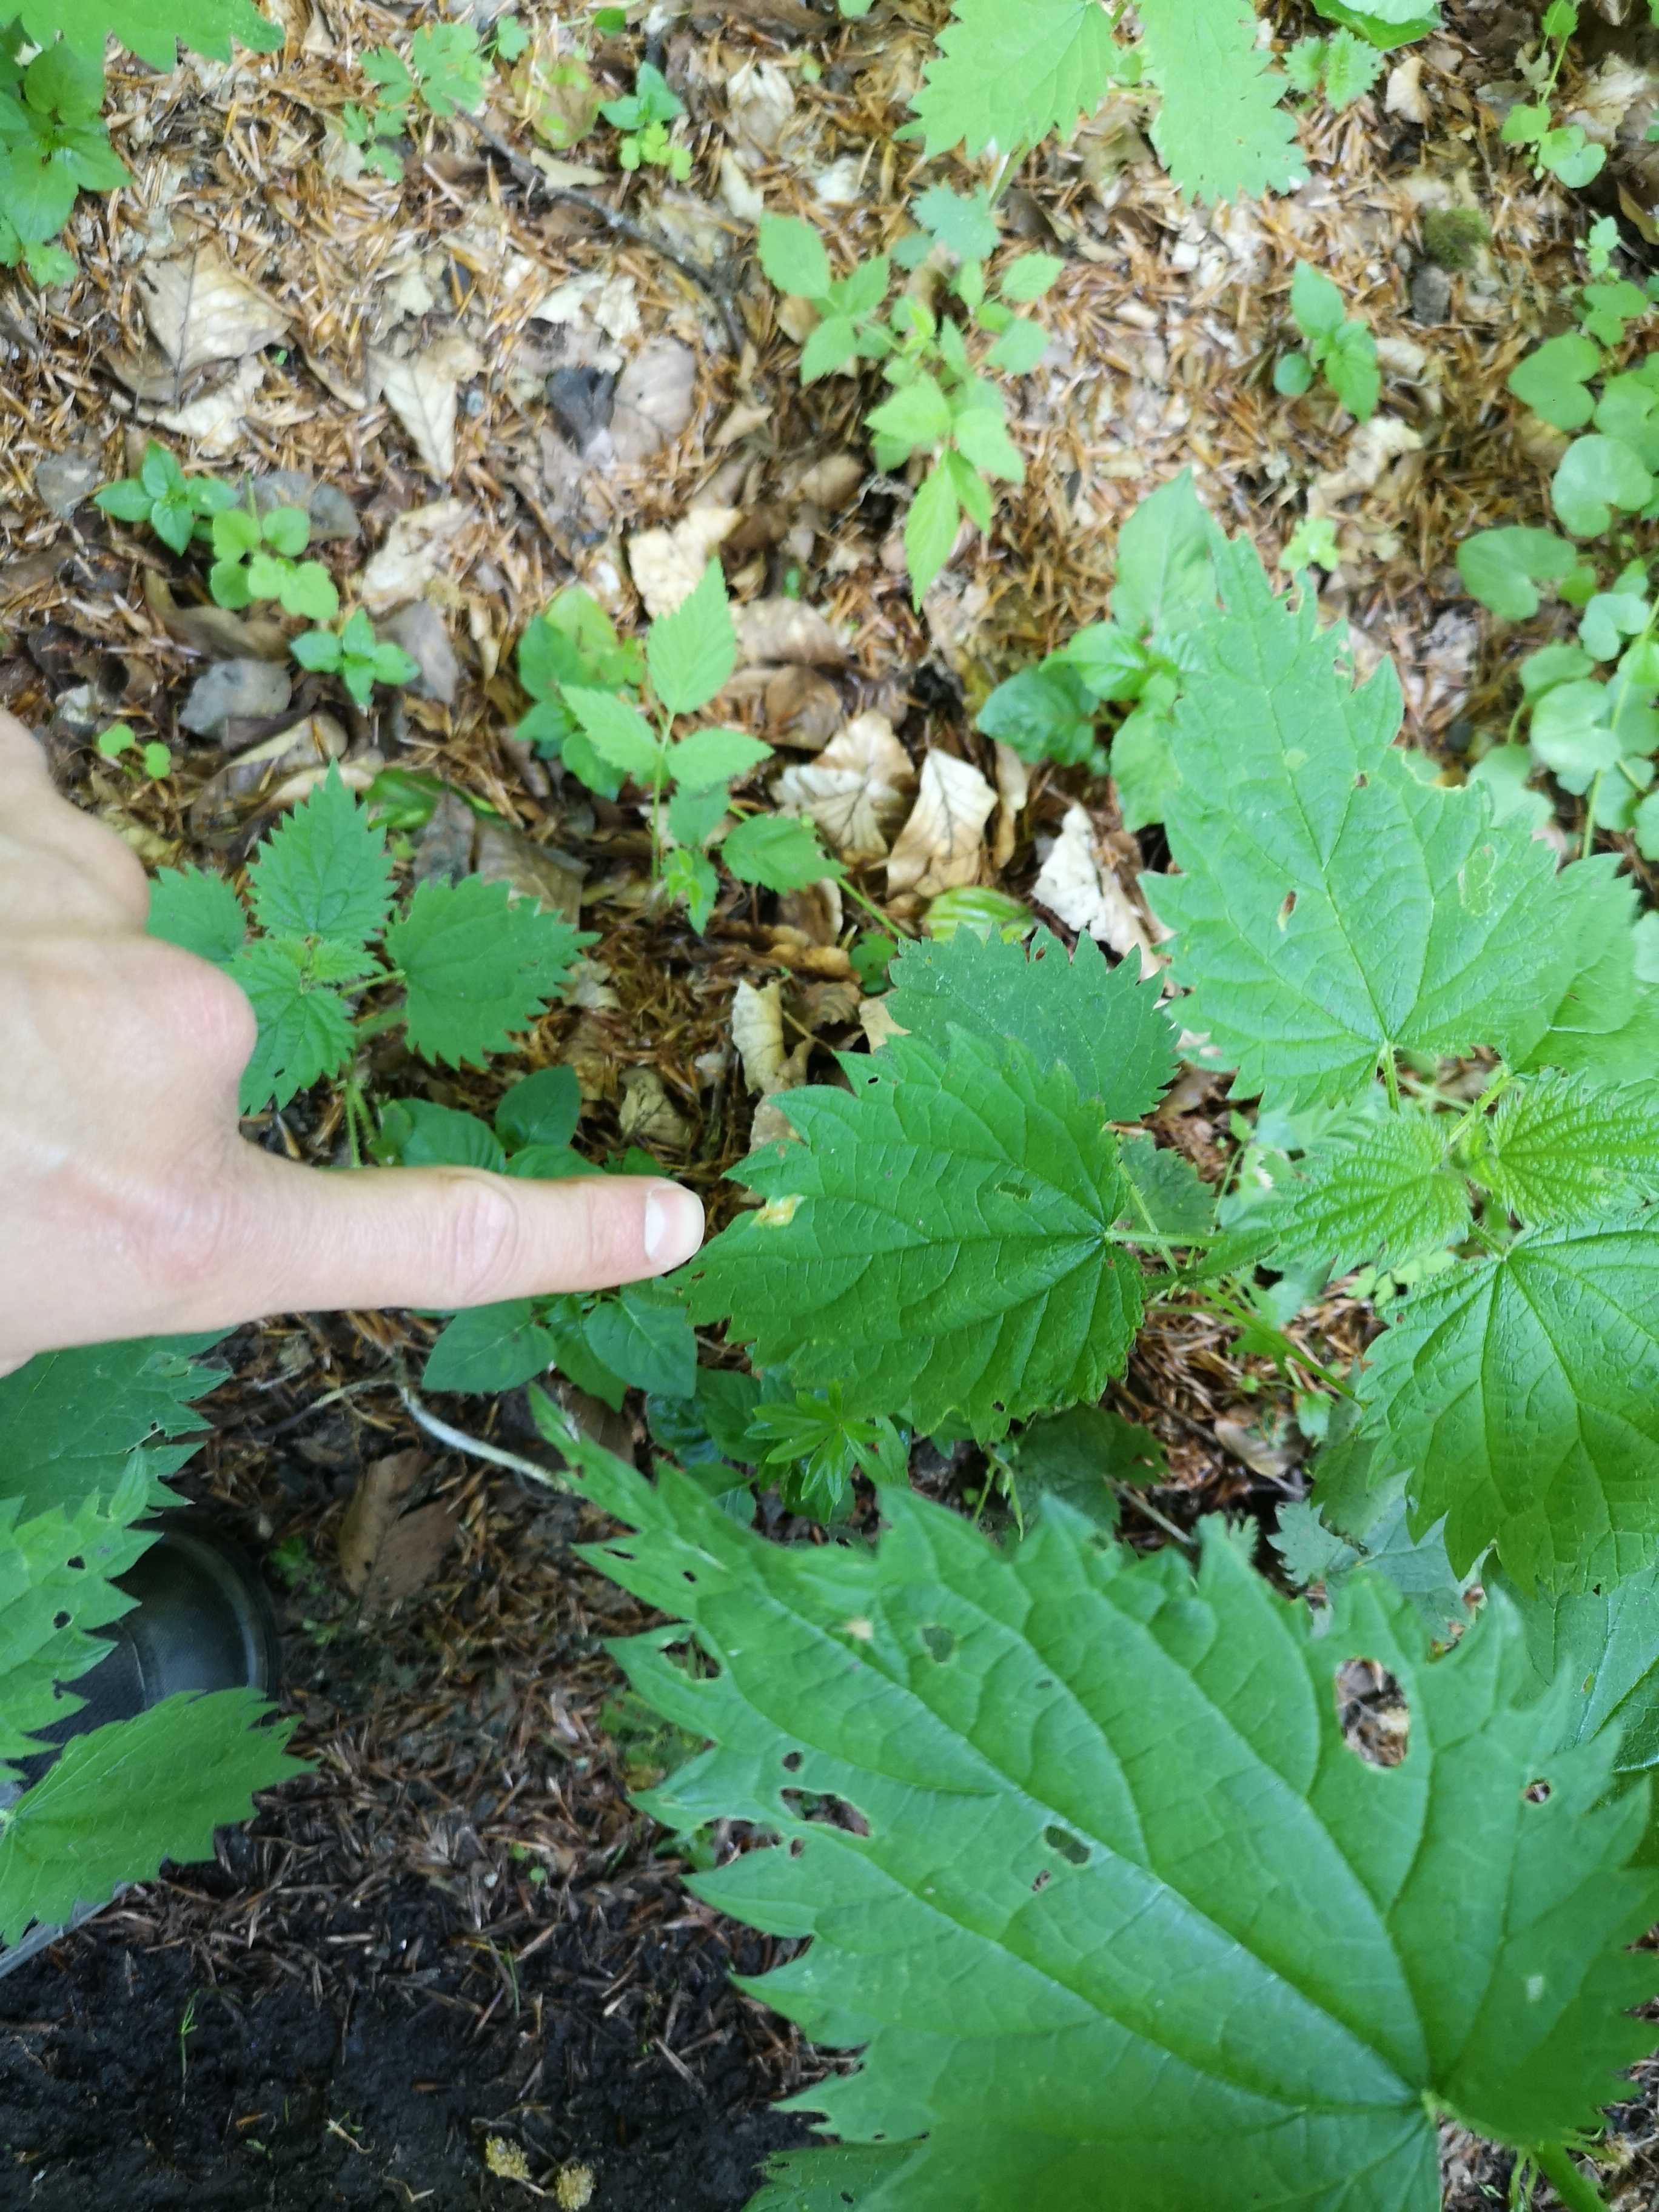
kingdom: Fungi
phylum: Basidiomycota
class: Pucciniomycetes
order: Pucciniales
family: Pucciniaceae
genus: Puccinia
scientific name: Puccinia
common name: tvecellerust
